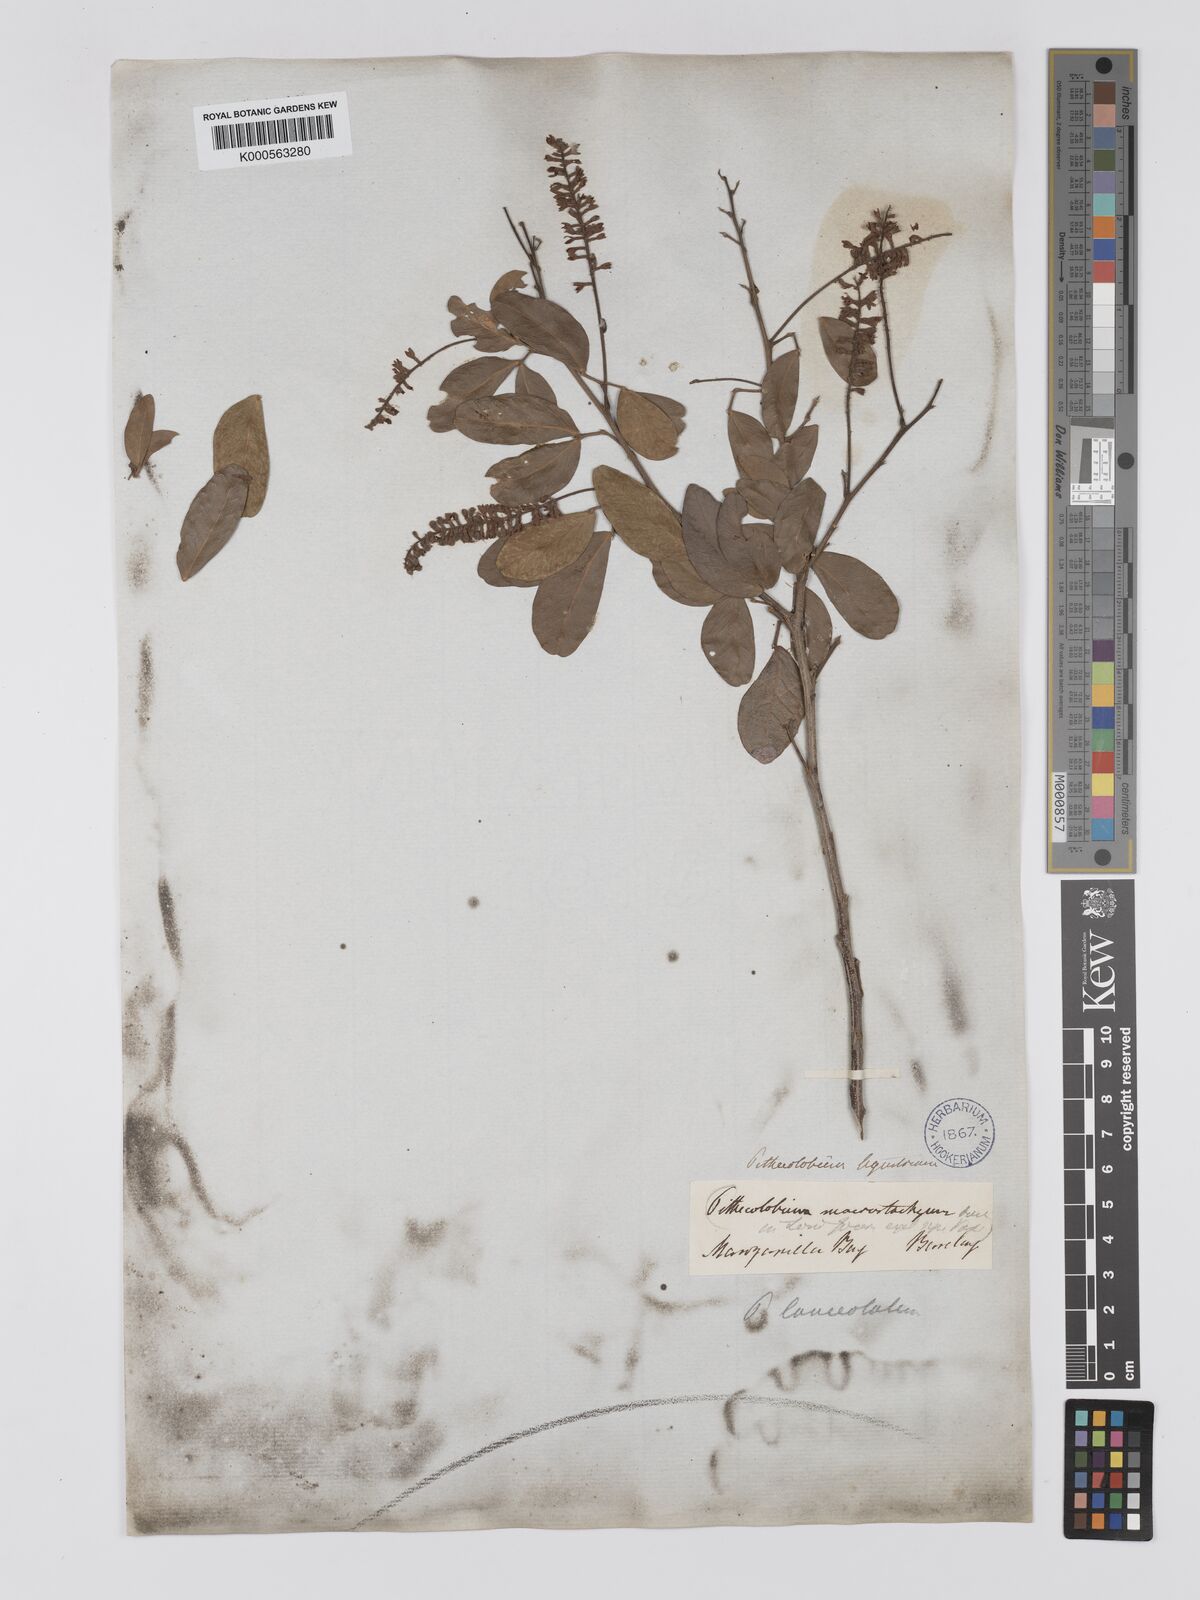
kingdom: Plantae
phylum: Tracheophyta
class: Magnoliopsida
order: Fabales
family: Fabaceae
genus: Pithecellobium
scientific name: Pithecellobium lanceolatum
